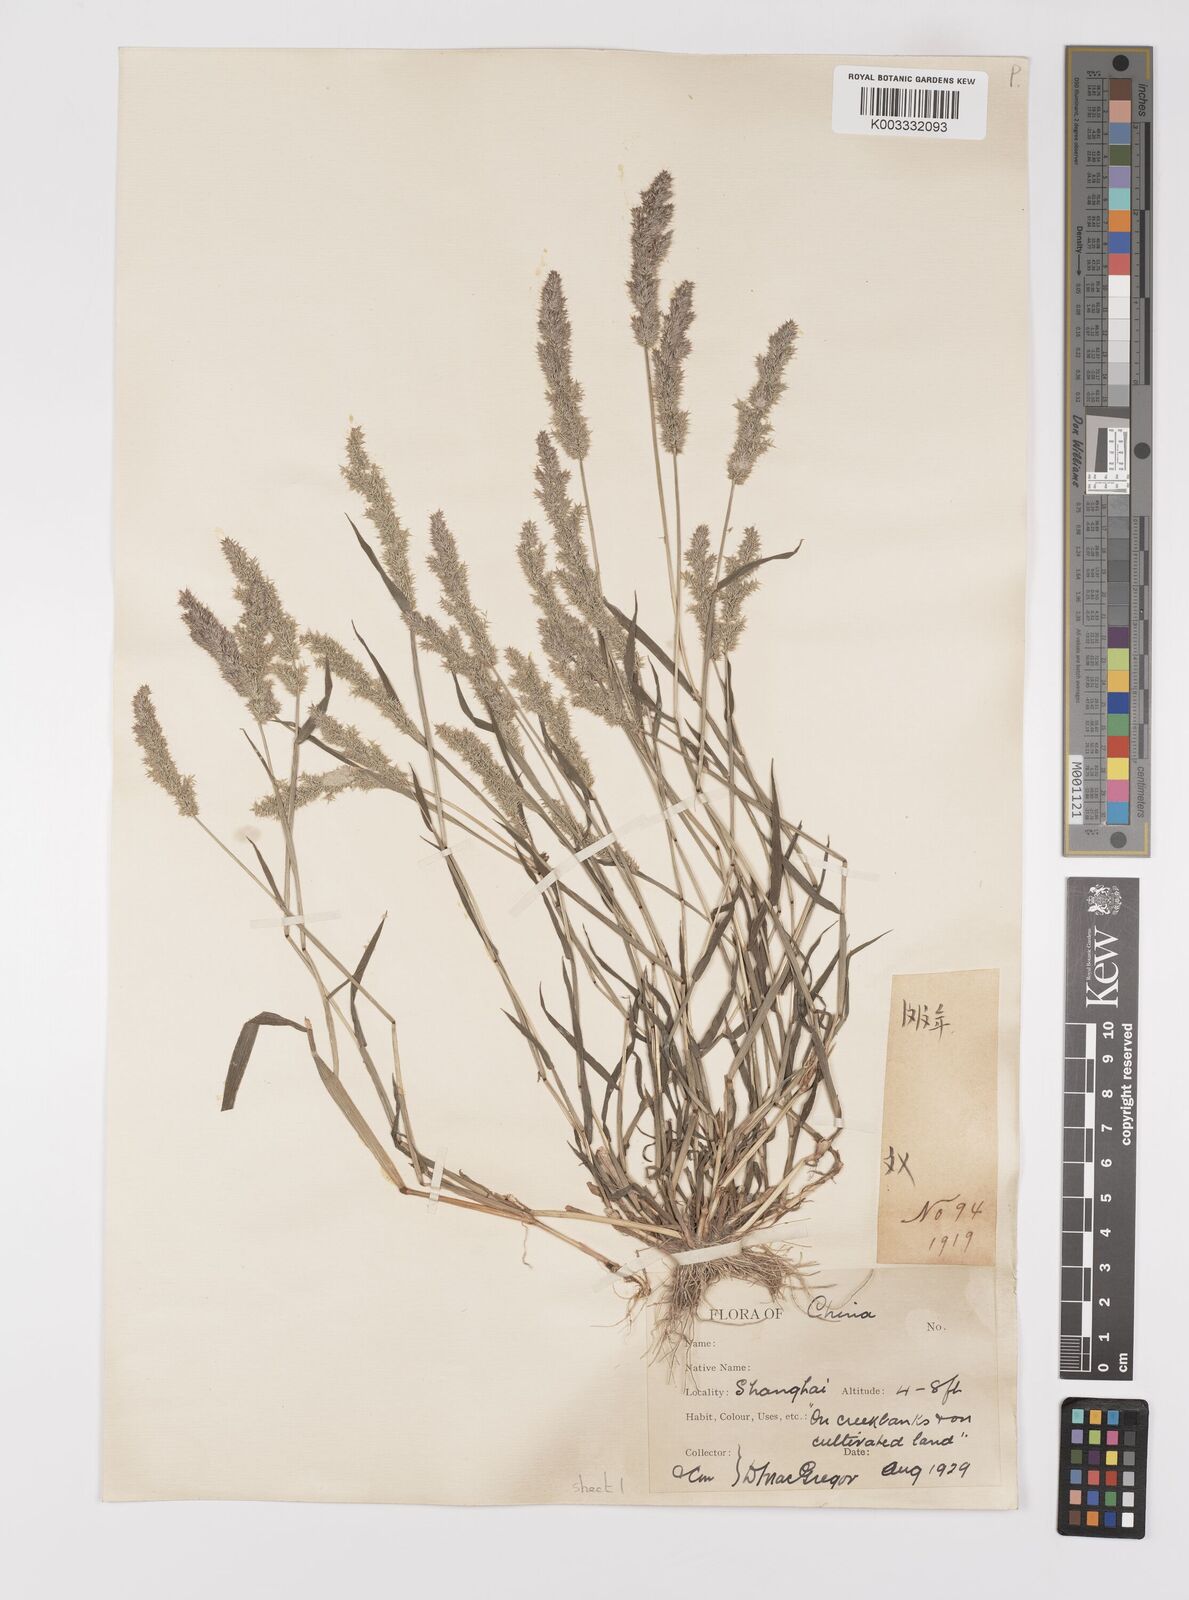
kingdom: Plantae
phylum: Tracheophyta
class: Liliopsida
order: Poales
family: Poaceae
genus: Polypogon
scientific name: Polypogon fugax
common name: Asia minor bluegrass
